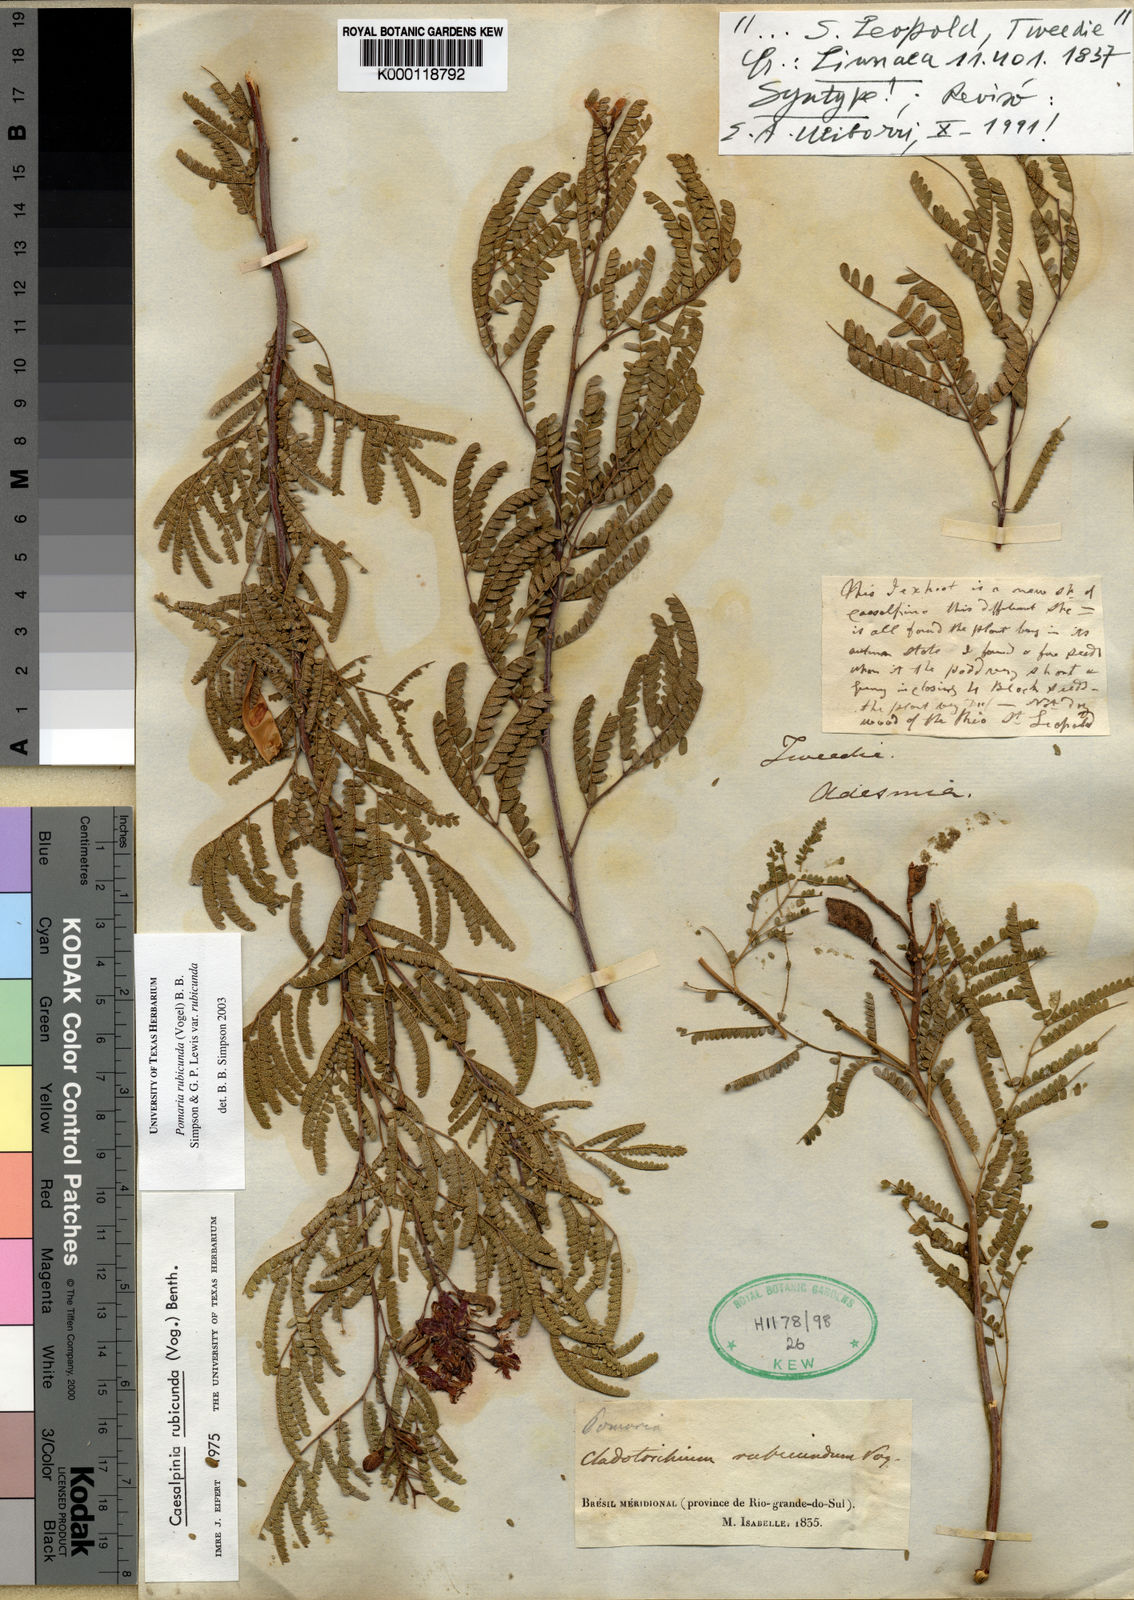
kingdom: Plantae
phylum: Tracheophyta
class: Magnoliopsida
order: Fabales
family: Fabaceae
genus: Pomaria
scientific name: Pomaria
